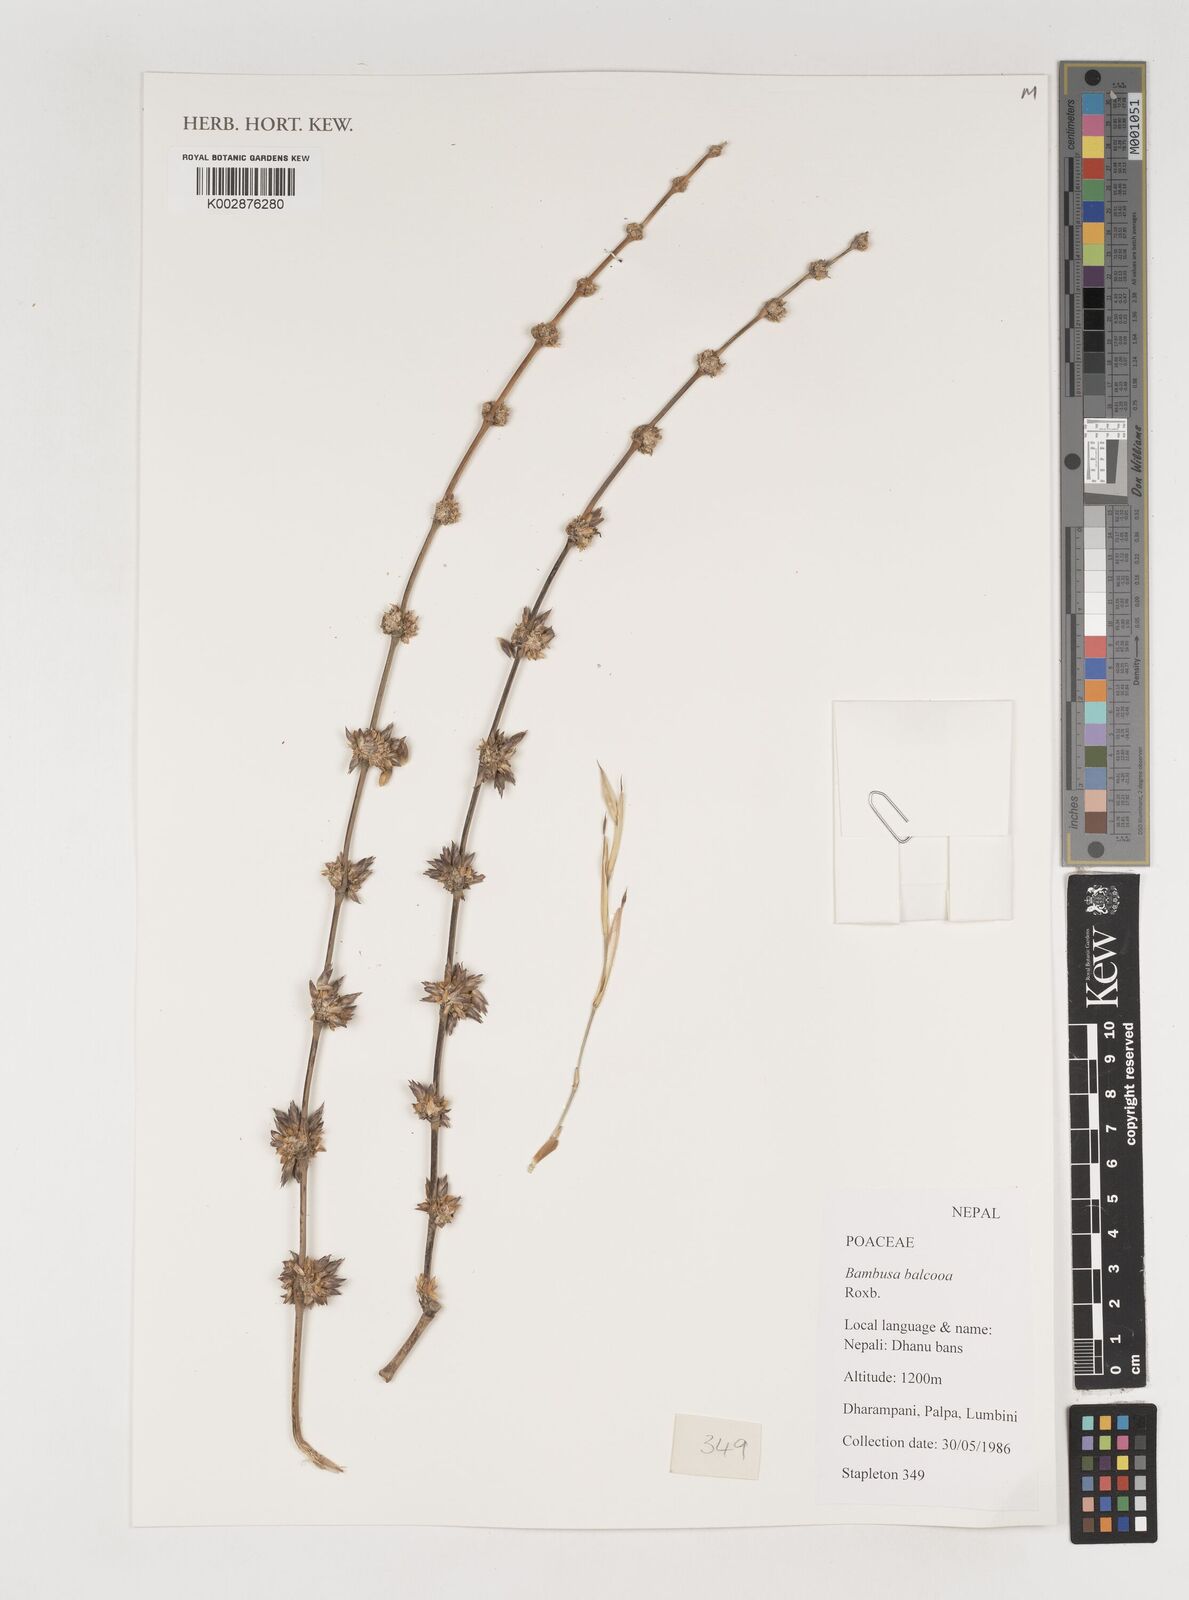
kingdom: Plantae
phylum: Tracheophyta
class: Liliopsida
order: Poales
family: Poaceae
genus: Bambusa
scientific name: Bambusa balcooa
